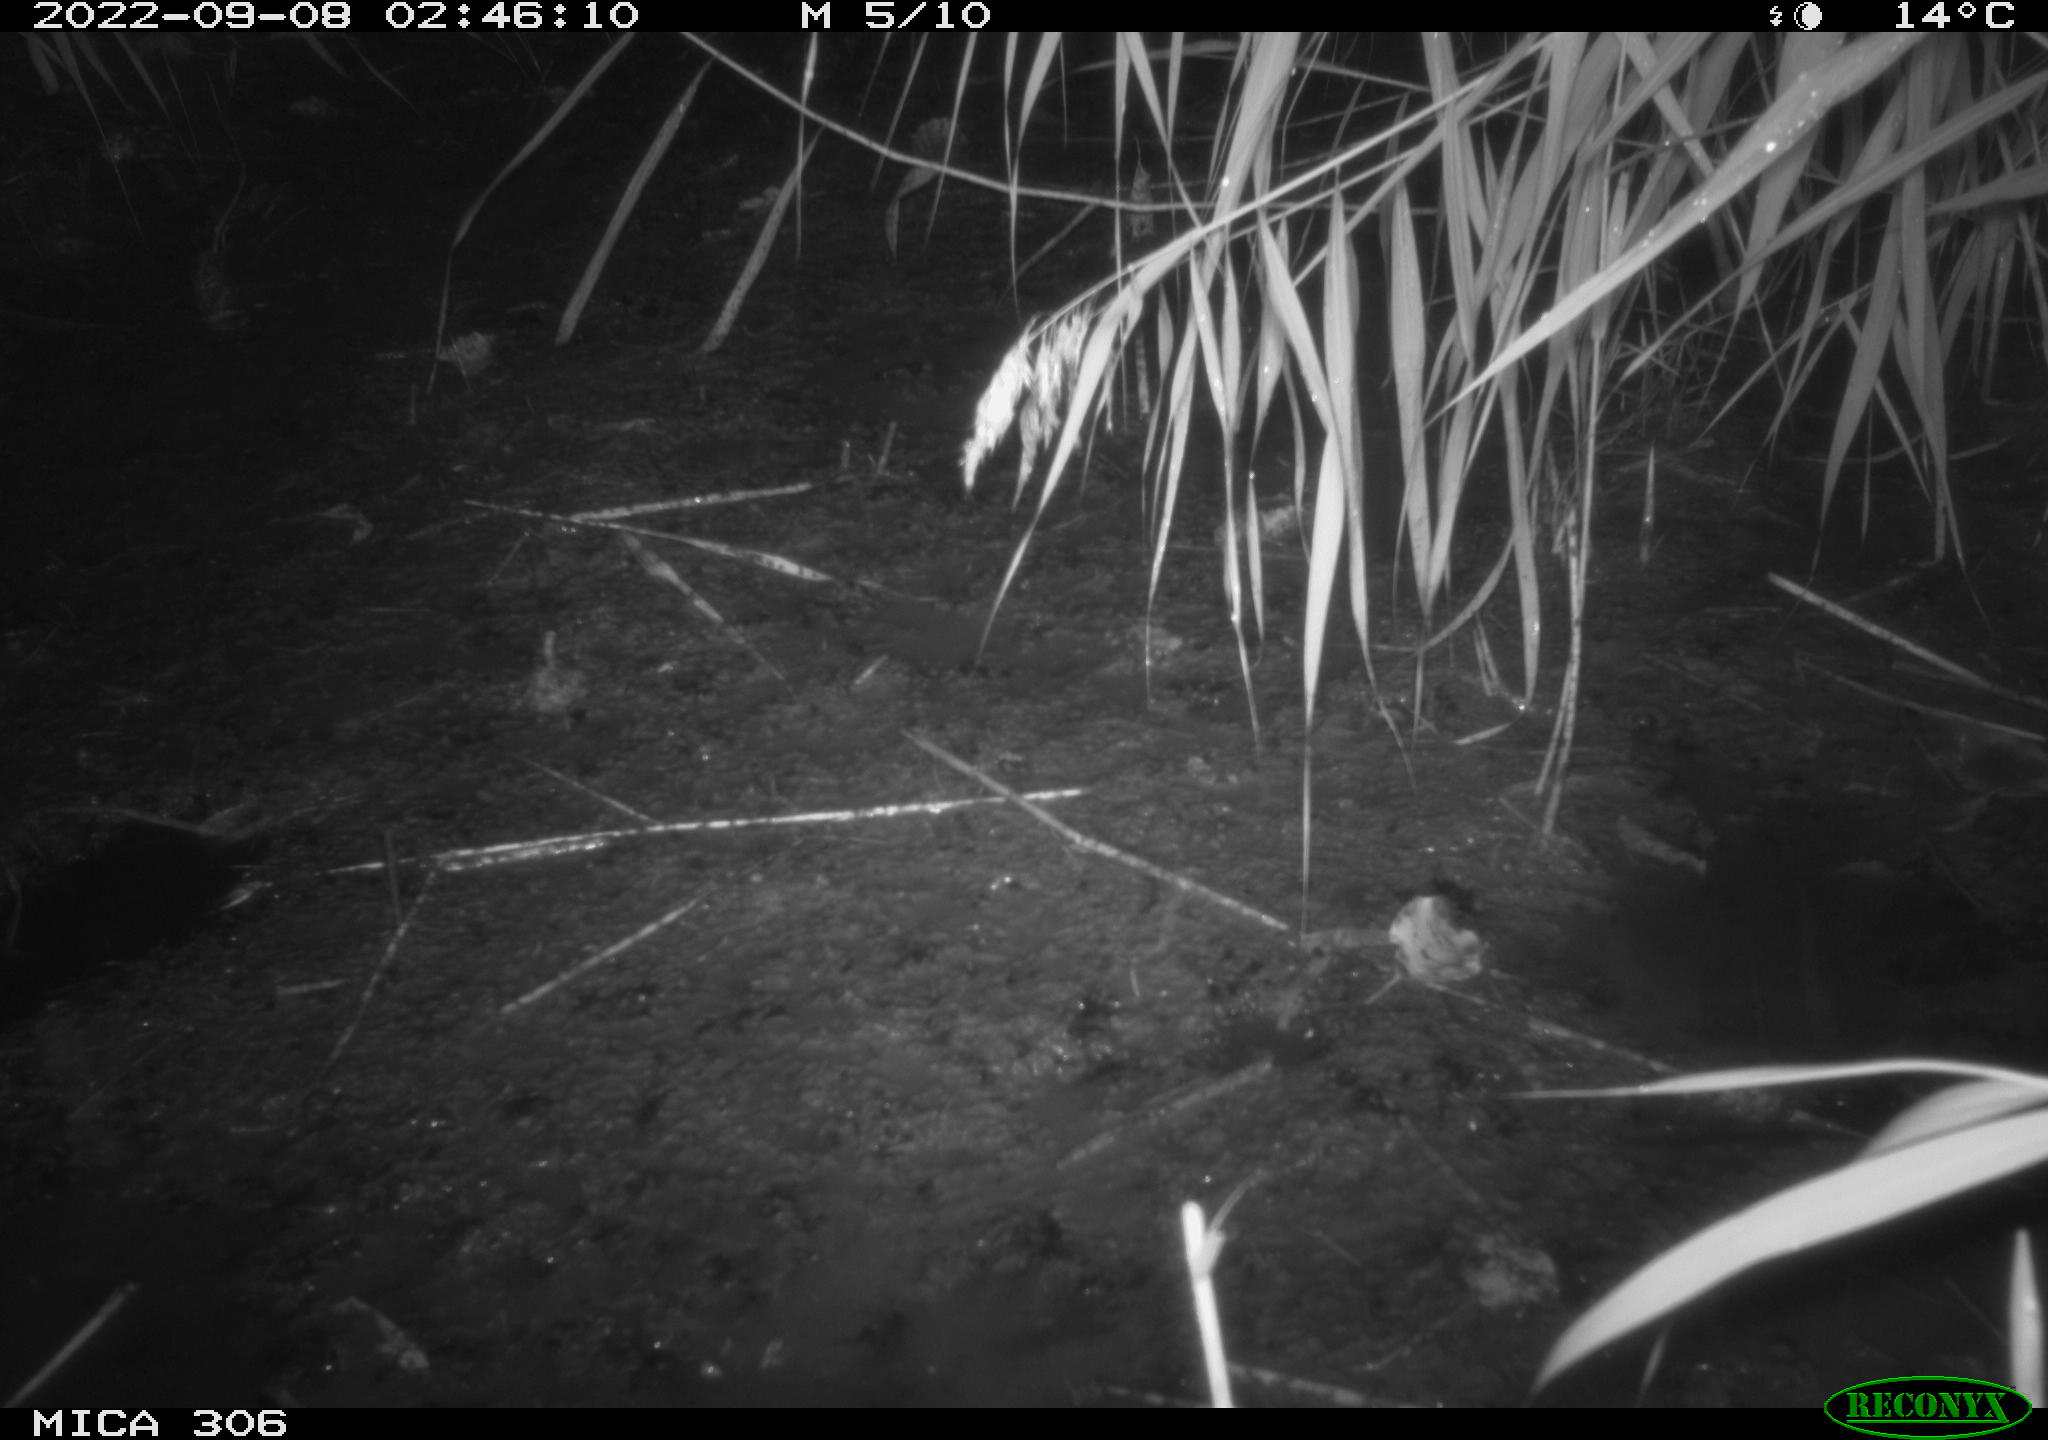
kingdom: Animalia
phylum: Chordata
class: Mammalia
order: Rodentia
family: Muridae
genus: Rattus
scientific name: Rattus norvegicus
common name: Brown rat
